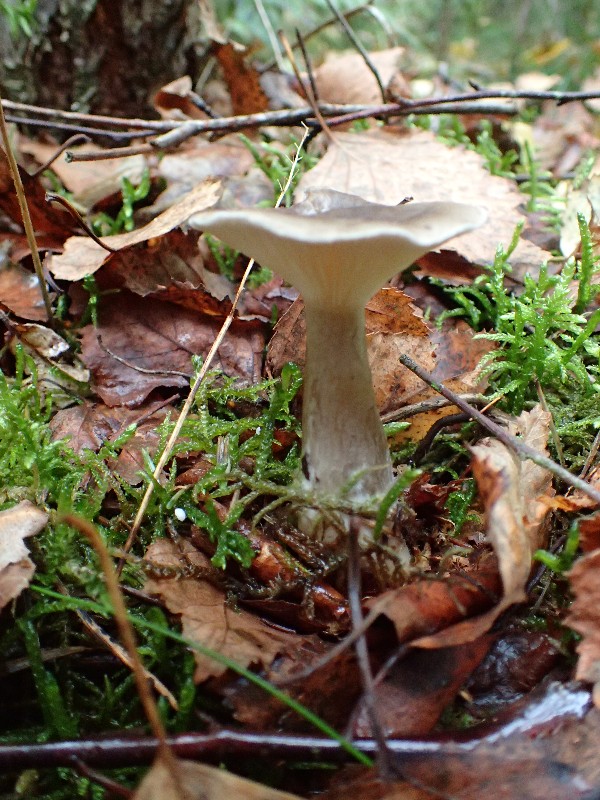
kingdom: Fungi
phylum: Basidiomycota
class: Agaricomycetes
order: Agaricales
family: Hygrophoraceae
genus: Ampulloclitocybe
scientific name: Ampulloclitocybe clavipes
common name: køllefod
